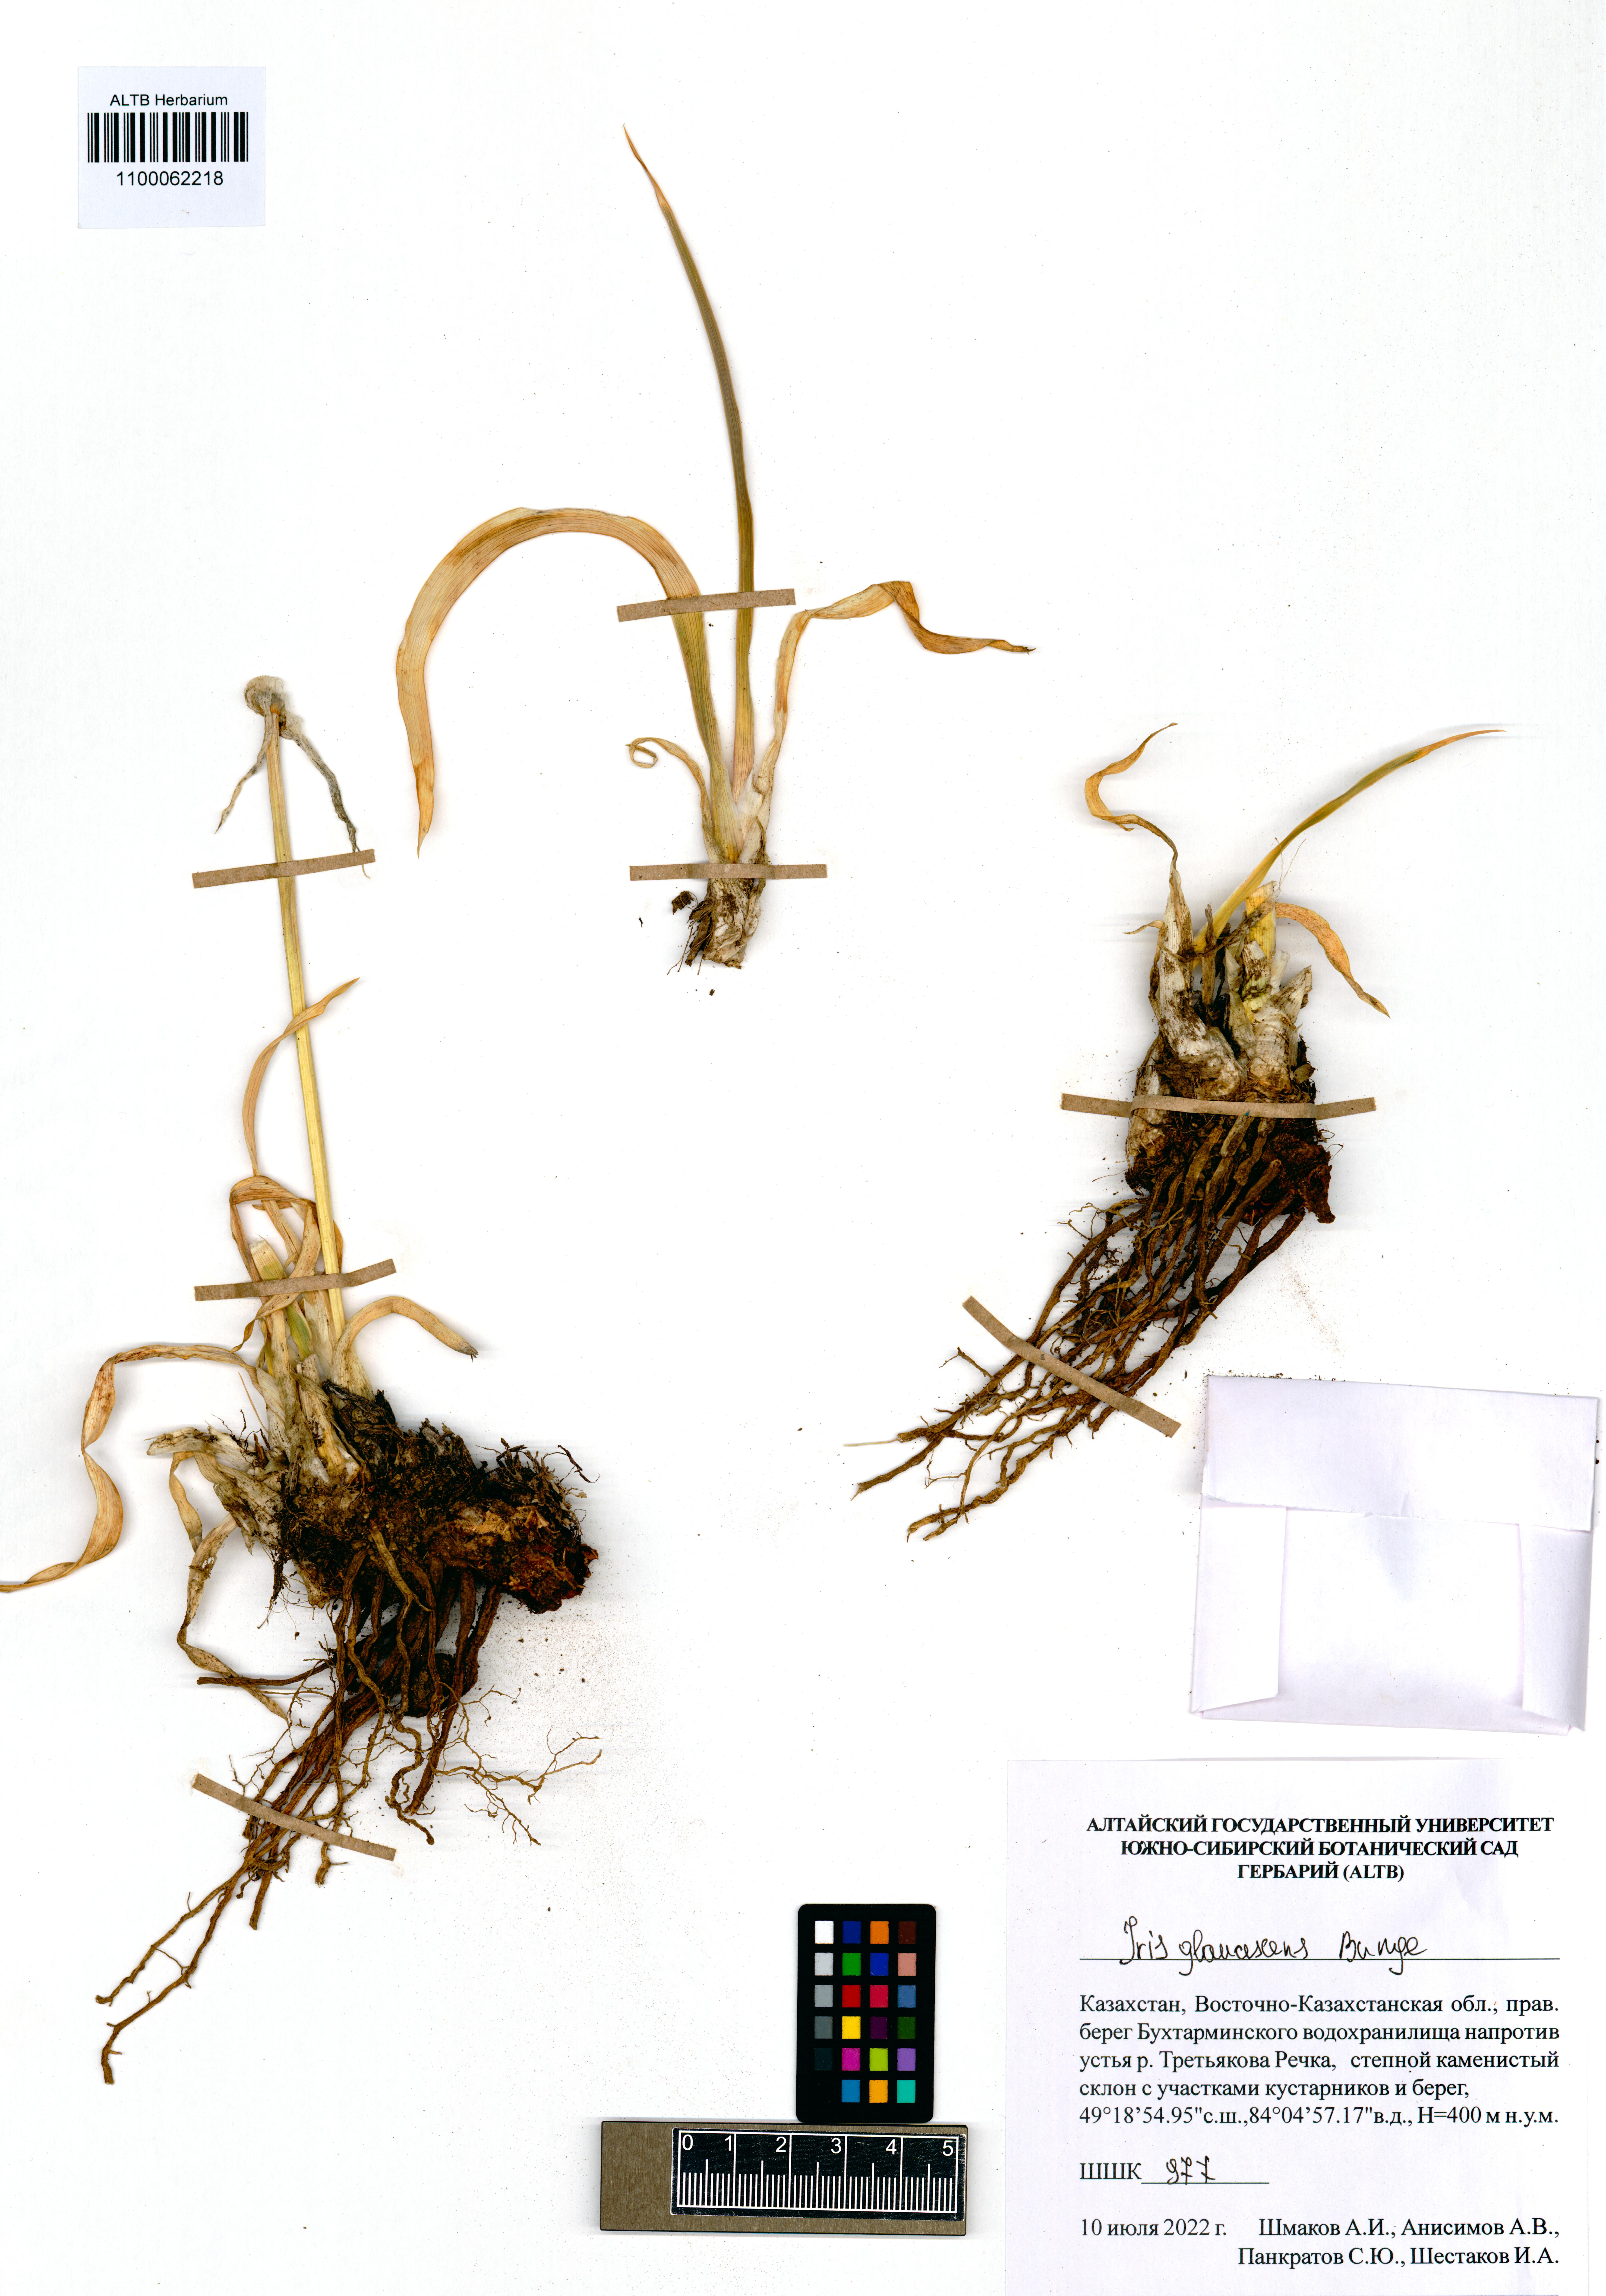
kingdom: Plantae
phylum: Tracheophyta
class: Liliopsida
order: Asparagales
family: Iridaceae
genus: Iris
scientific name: Iris glaucescens
